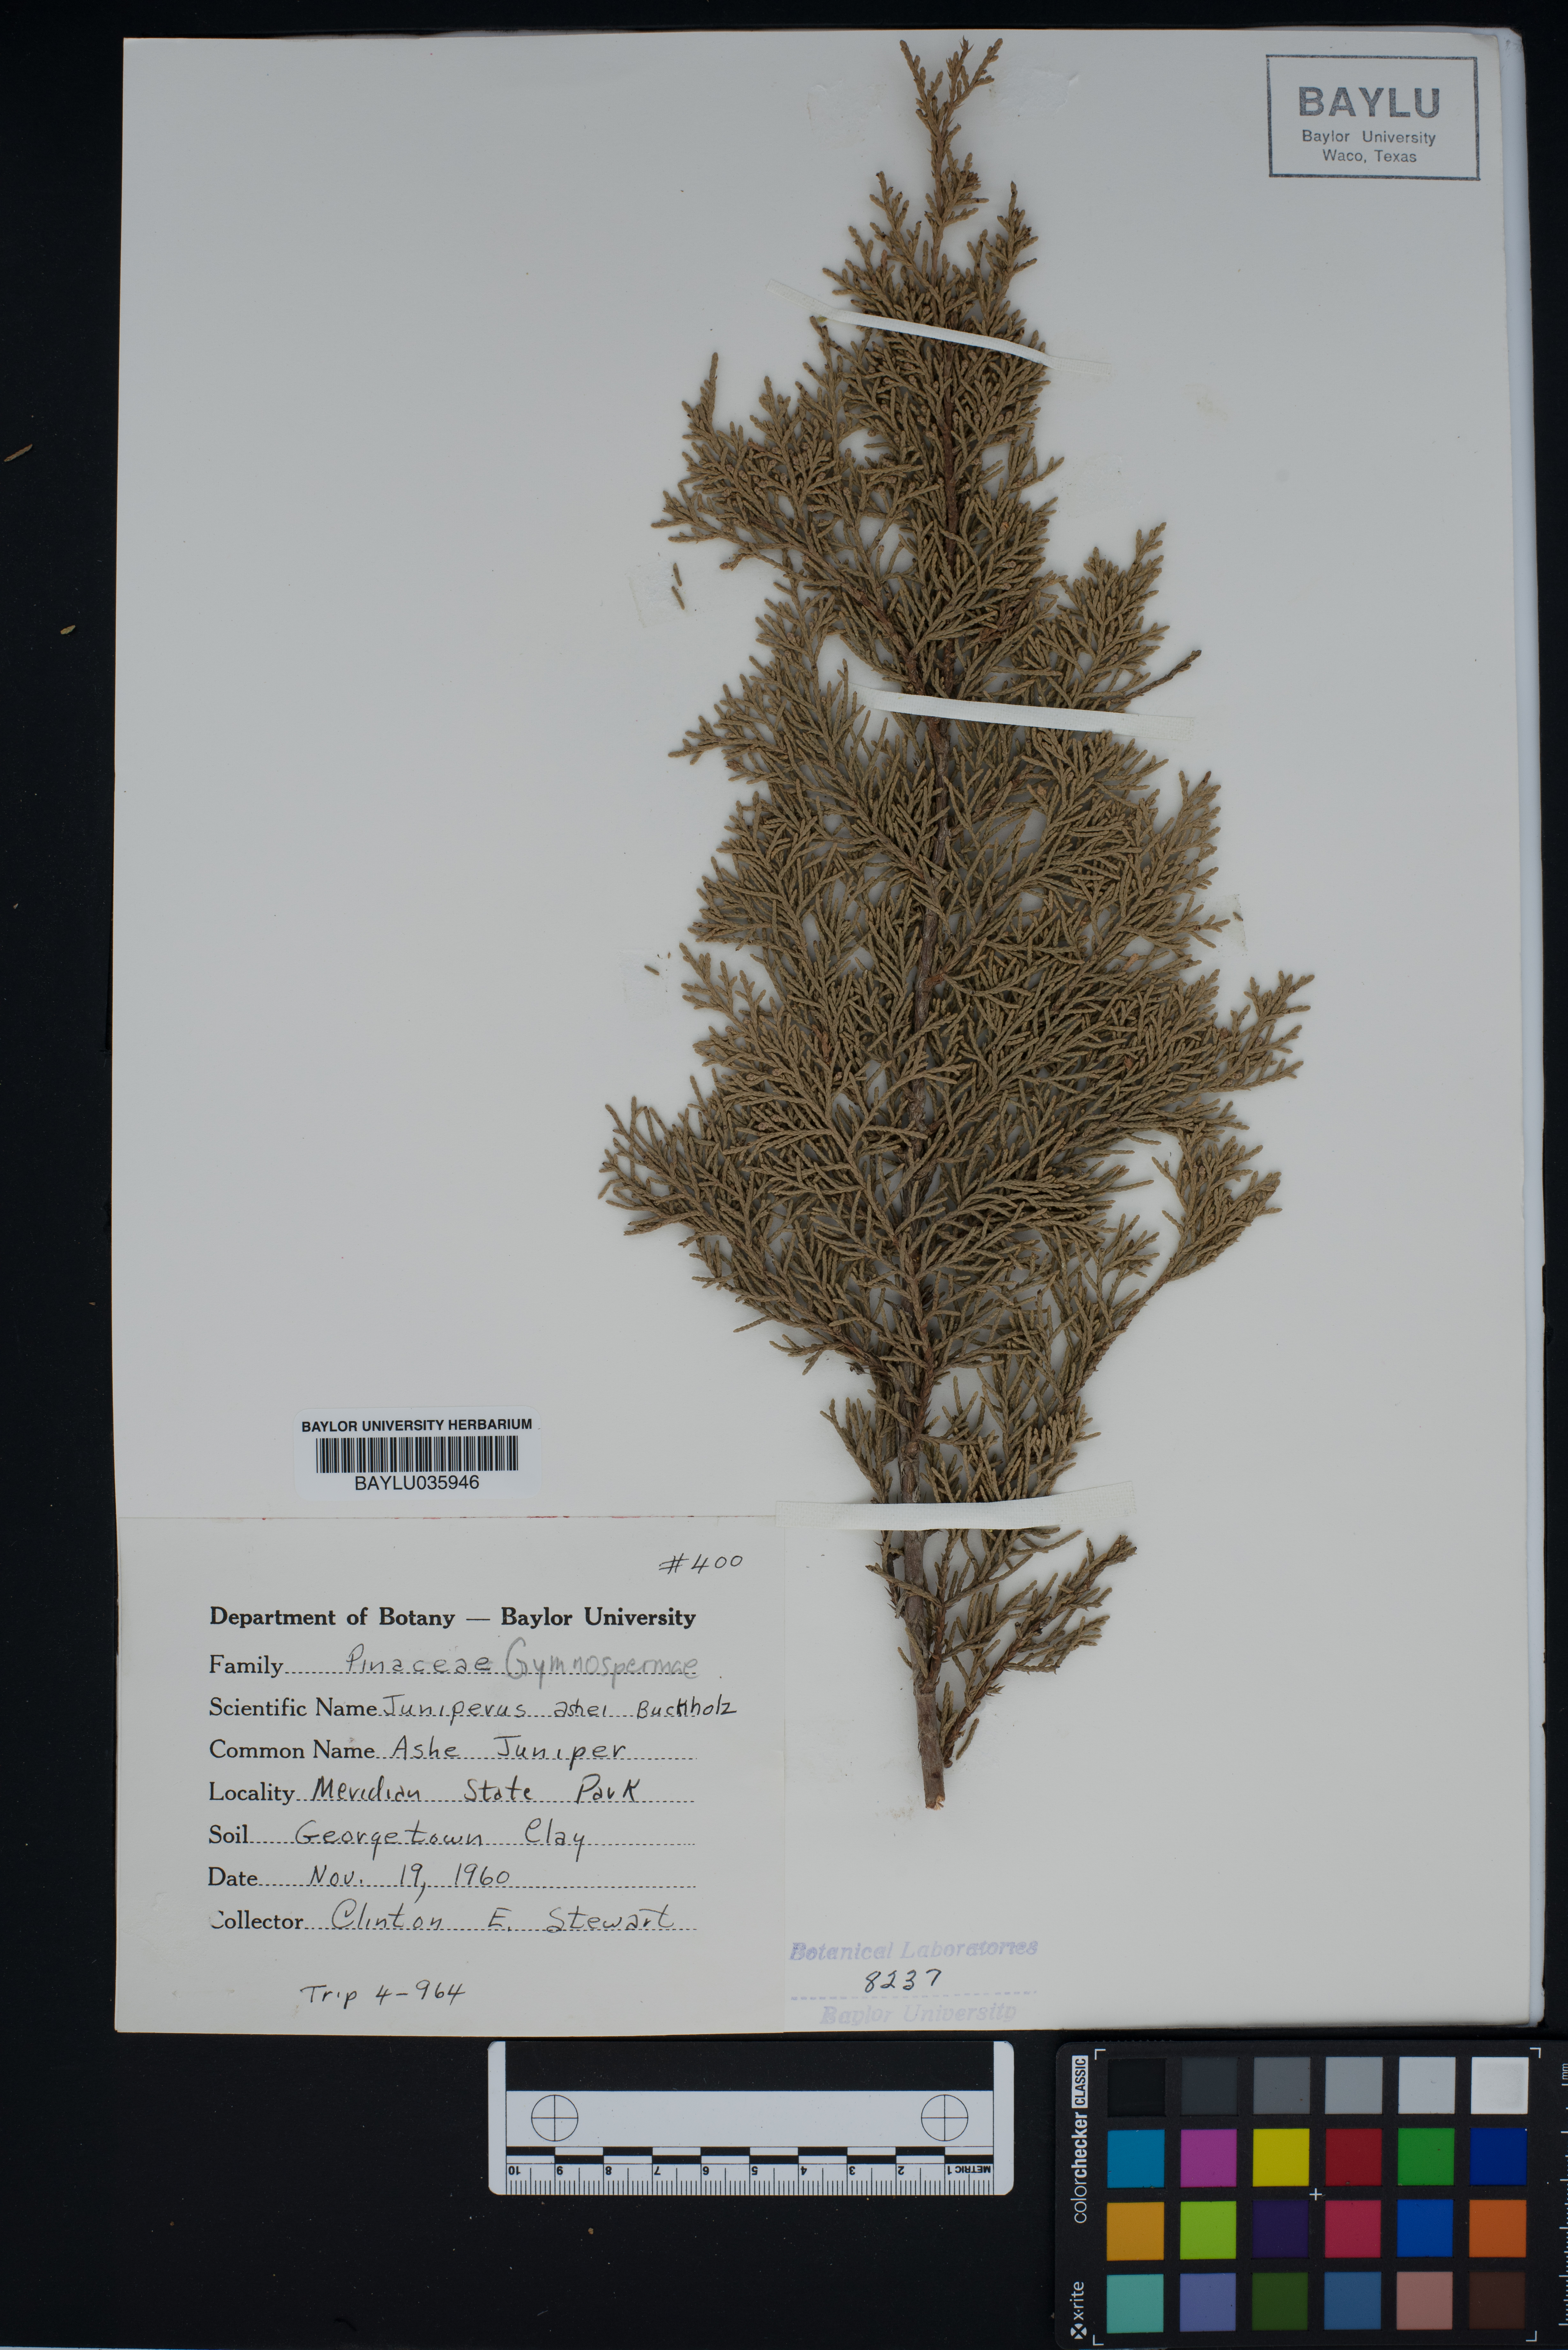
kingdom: Plantae
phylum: Tracheophyta
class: Pinopsida
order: Pinales
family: Cupressaceae
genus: Juniperus
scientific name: Juniperus ashei
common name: Mexican juniper
